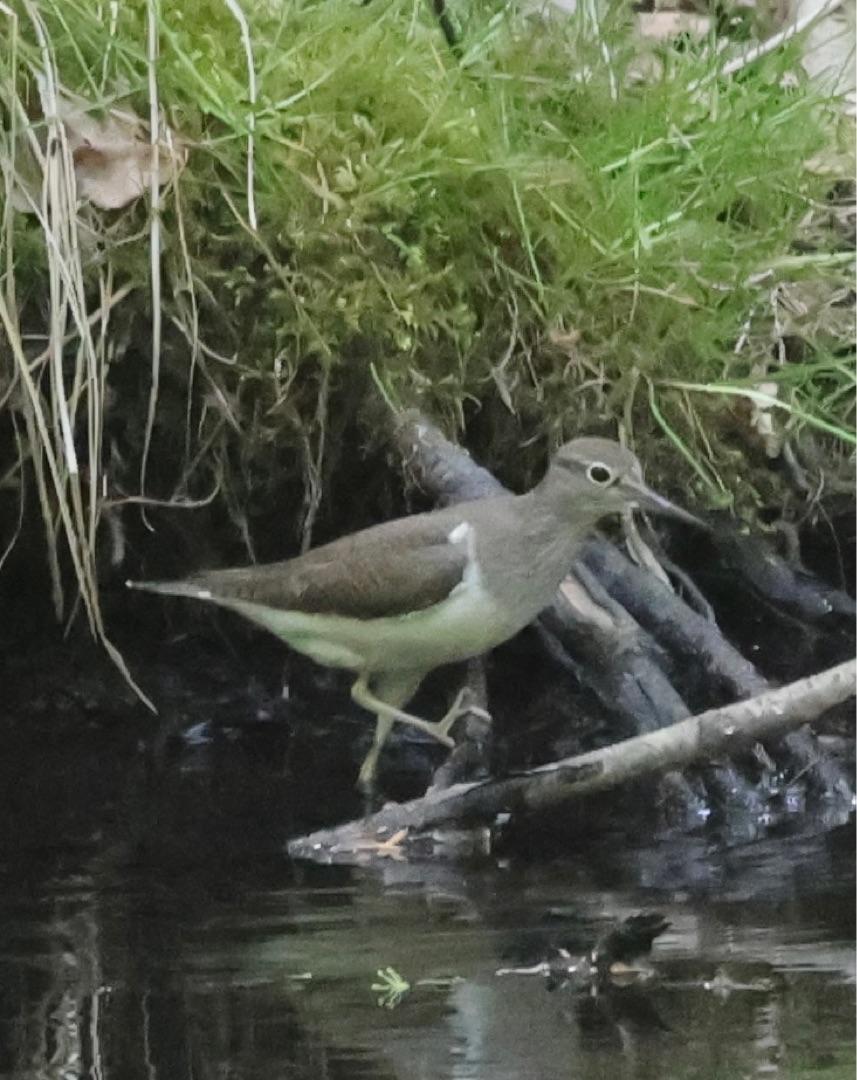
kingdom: Animalia
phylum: Chordata
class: Aves
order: Charadriiformes
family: Scolopacidae
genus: Actitis
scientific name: Actitis hypoleucos
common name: Mudderklire
